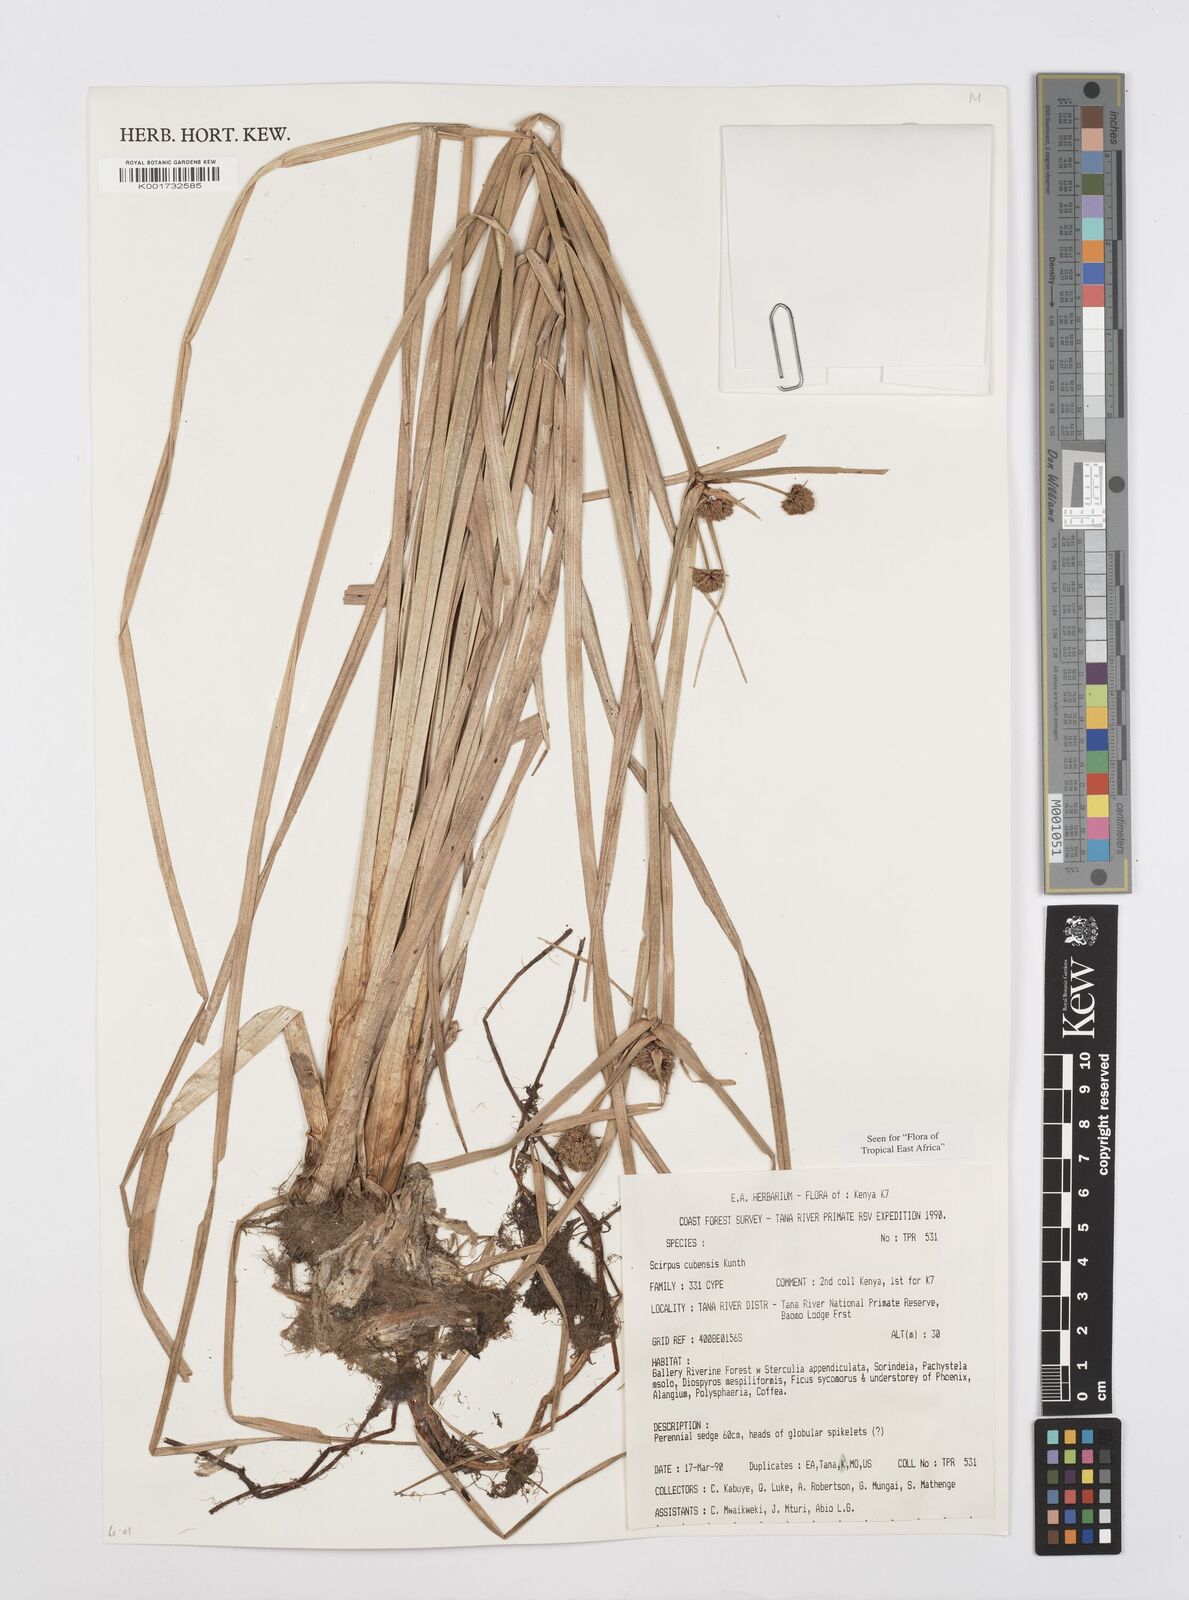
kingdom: Plantae
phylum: Tracheophyta
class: Liliopsida
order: Poales
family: Cyperaceae
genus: Cyperus
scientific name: Cyperus elegans
